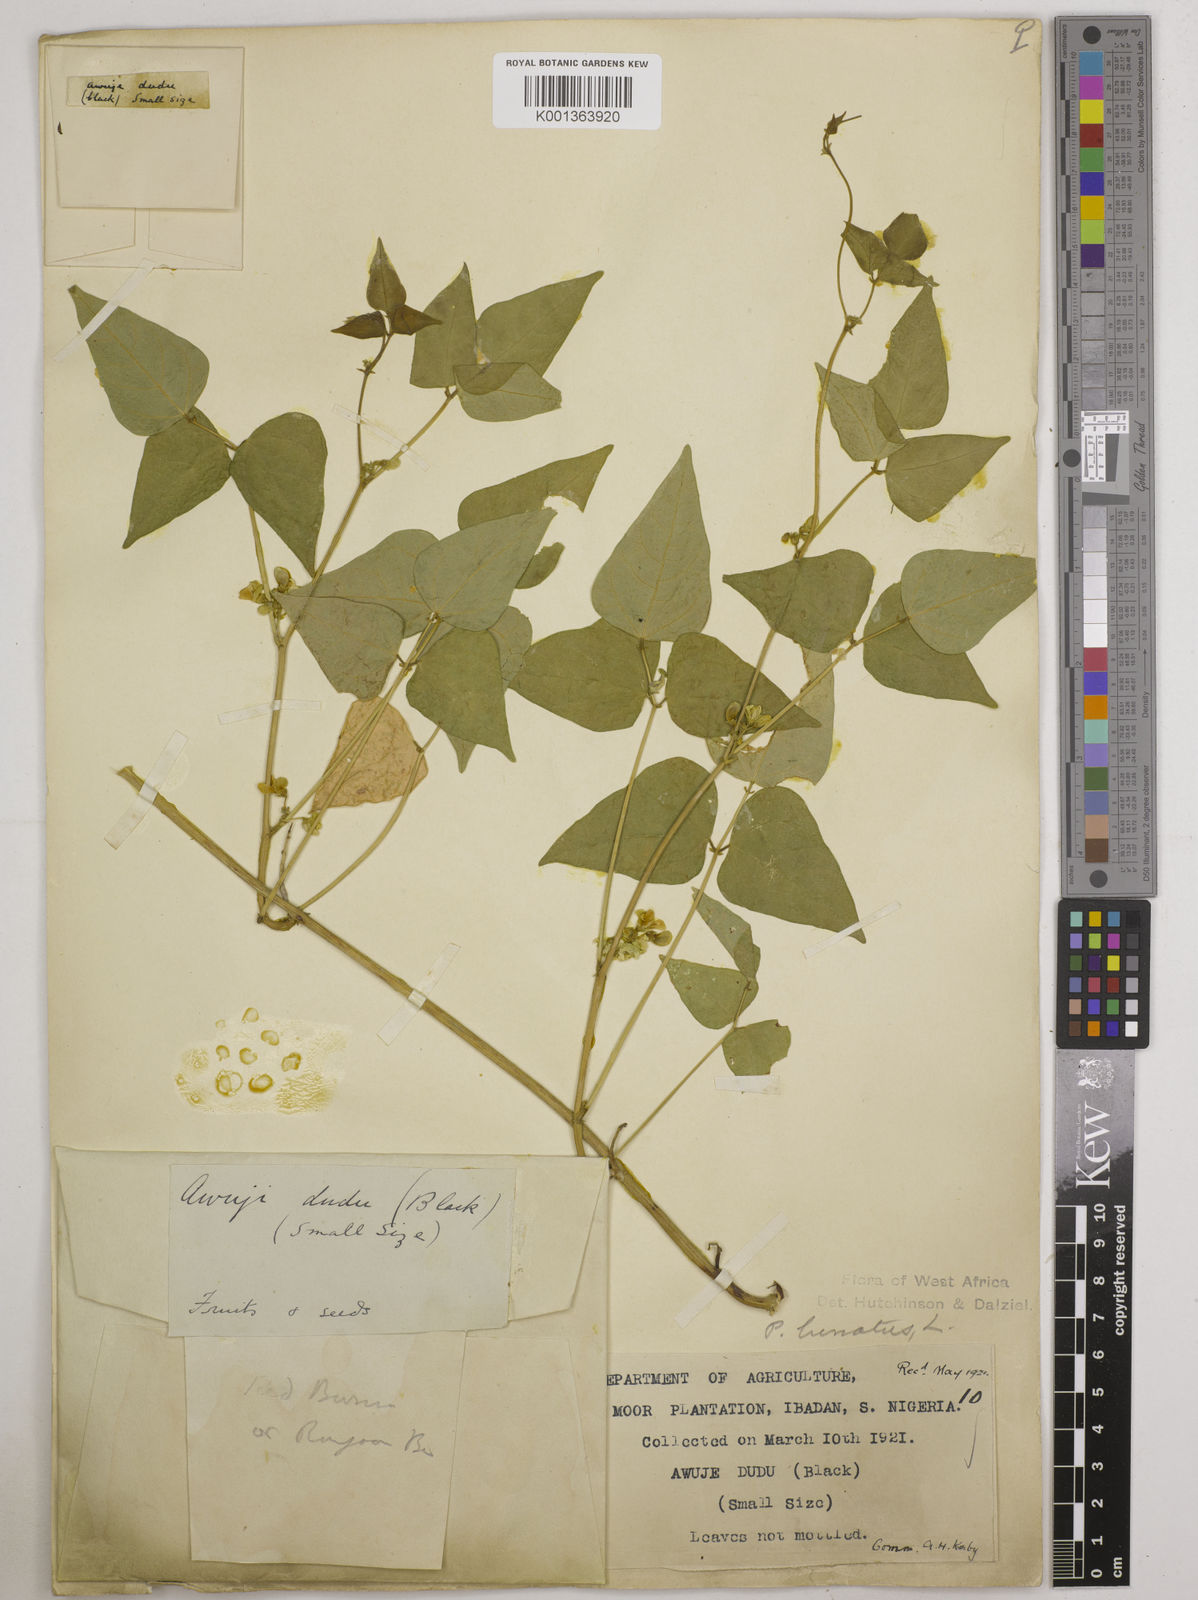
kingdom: Plantae
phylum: Tracheophyta
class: Magnoliopsida
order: Fabales
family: Fabaceae
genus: Phaseolus
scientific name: Phaseolus lunatus
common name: Sieva bean
